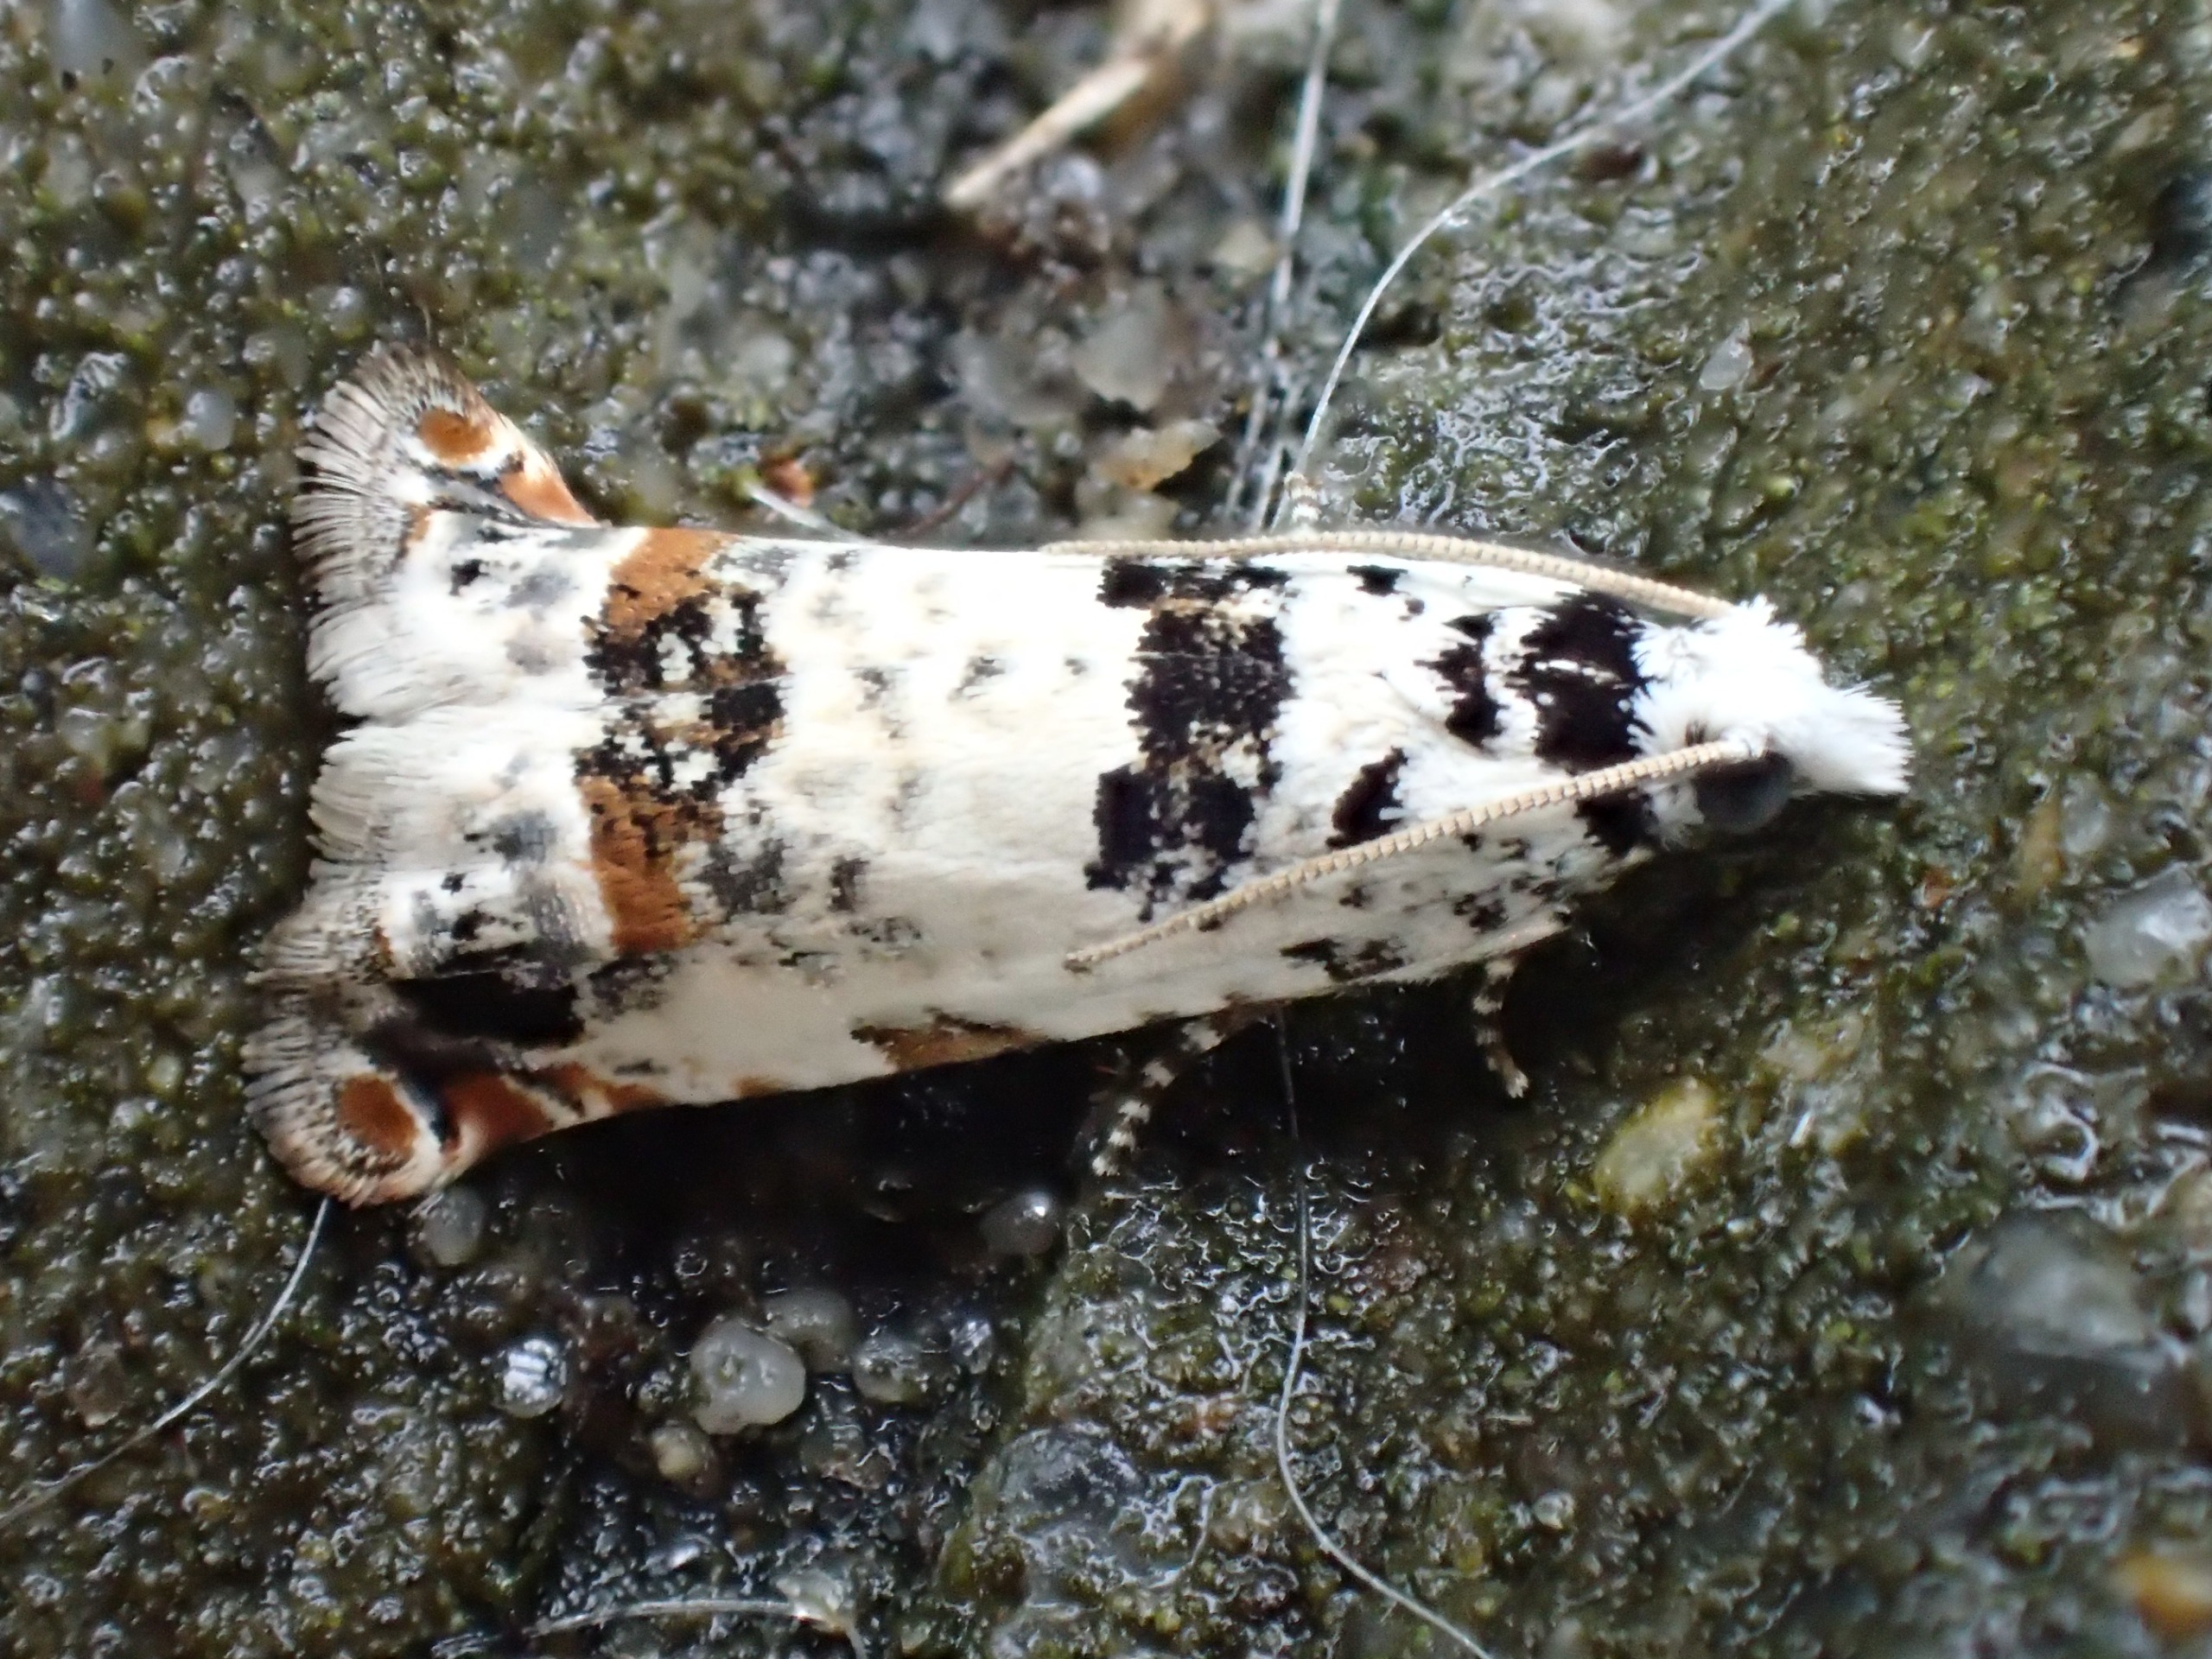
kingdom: Animalia
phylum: Arthropoda
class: Insecta
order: Lepidoptera
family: Tortricidae
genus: Eucosma
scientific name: Eucosma campoliliana
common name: Brandbægerfrøvikler
